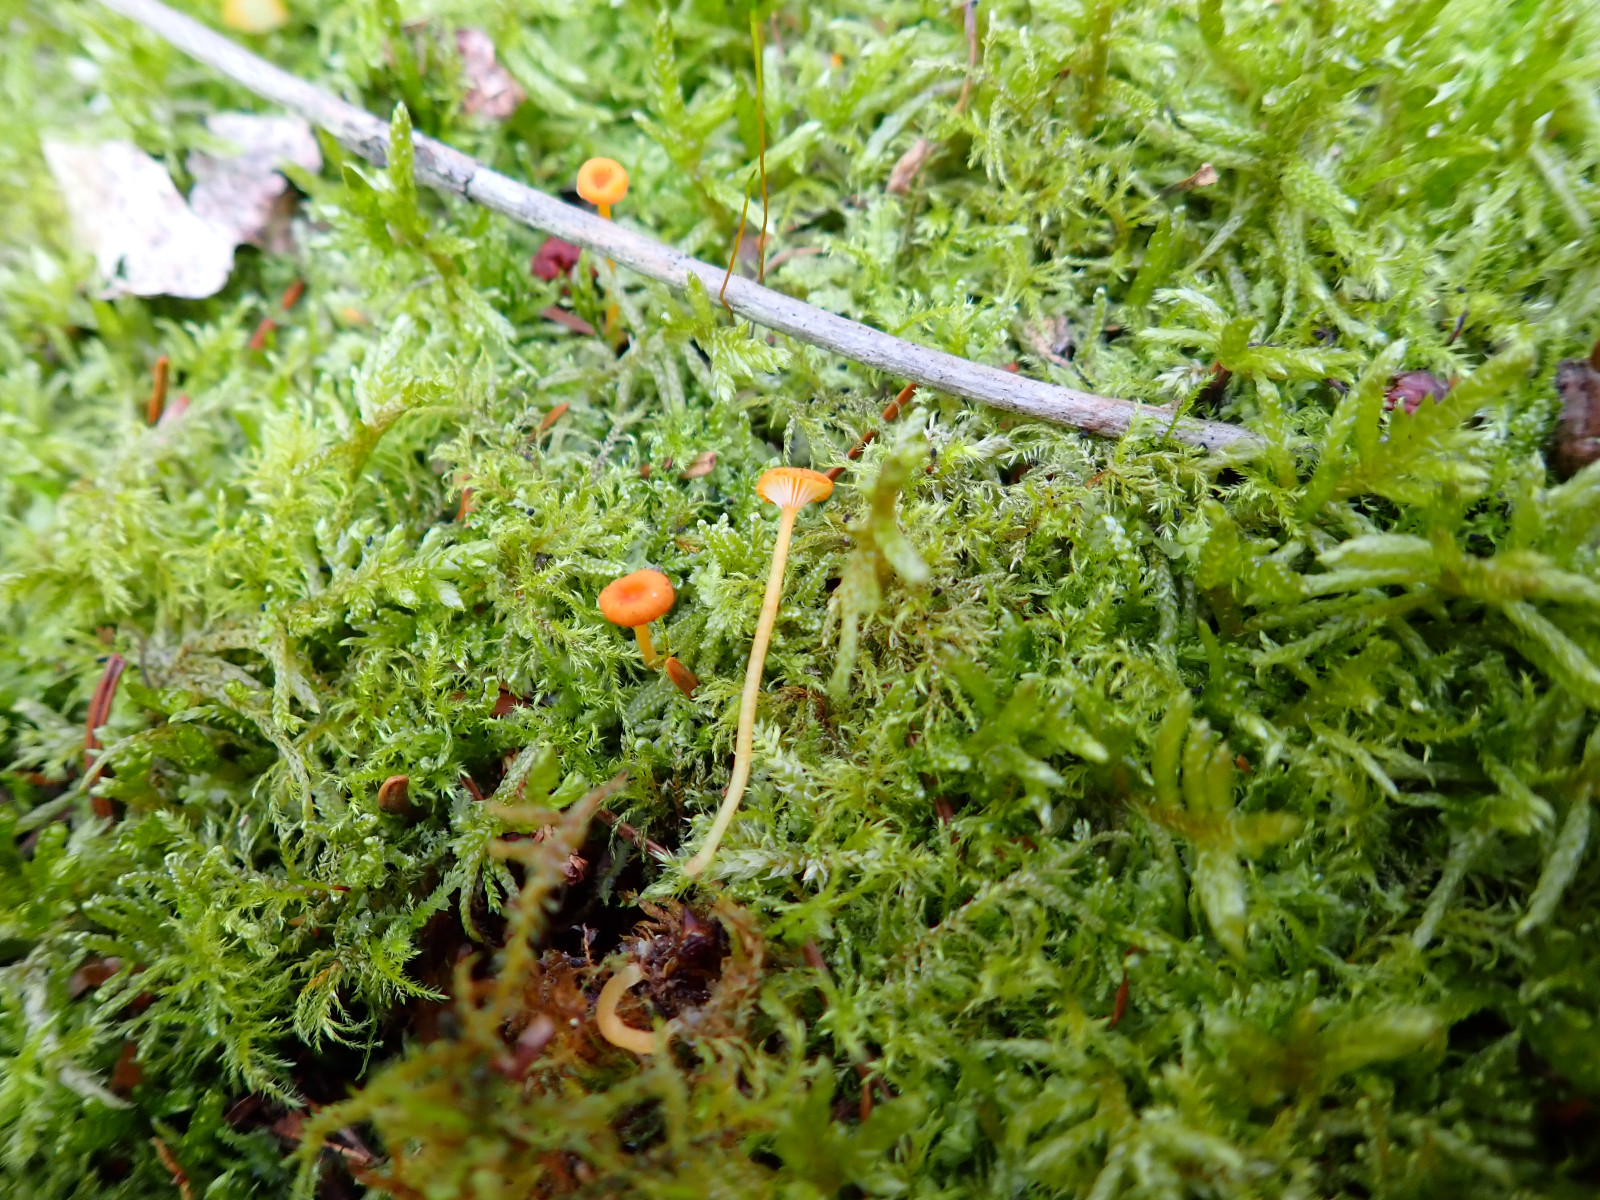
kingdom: Fungi
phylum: Basidiomycota
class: Agaricomycetes
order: Hymenochaetales
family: Rickenellaceae
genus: Rickenella
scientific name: Rickenella fibula
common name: orange mosnavlehat
